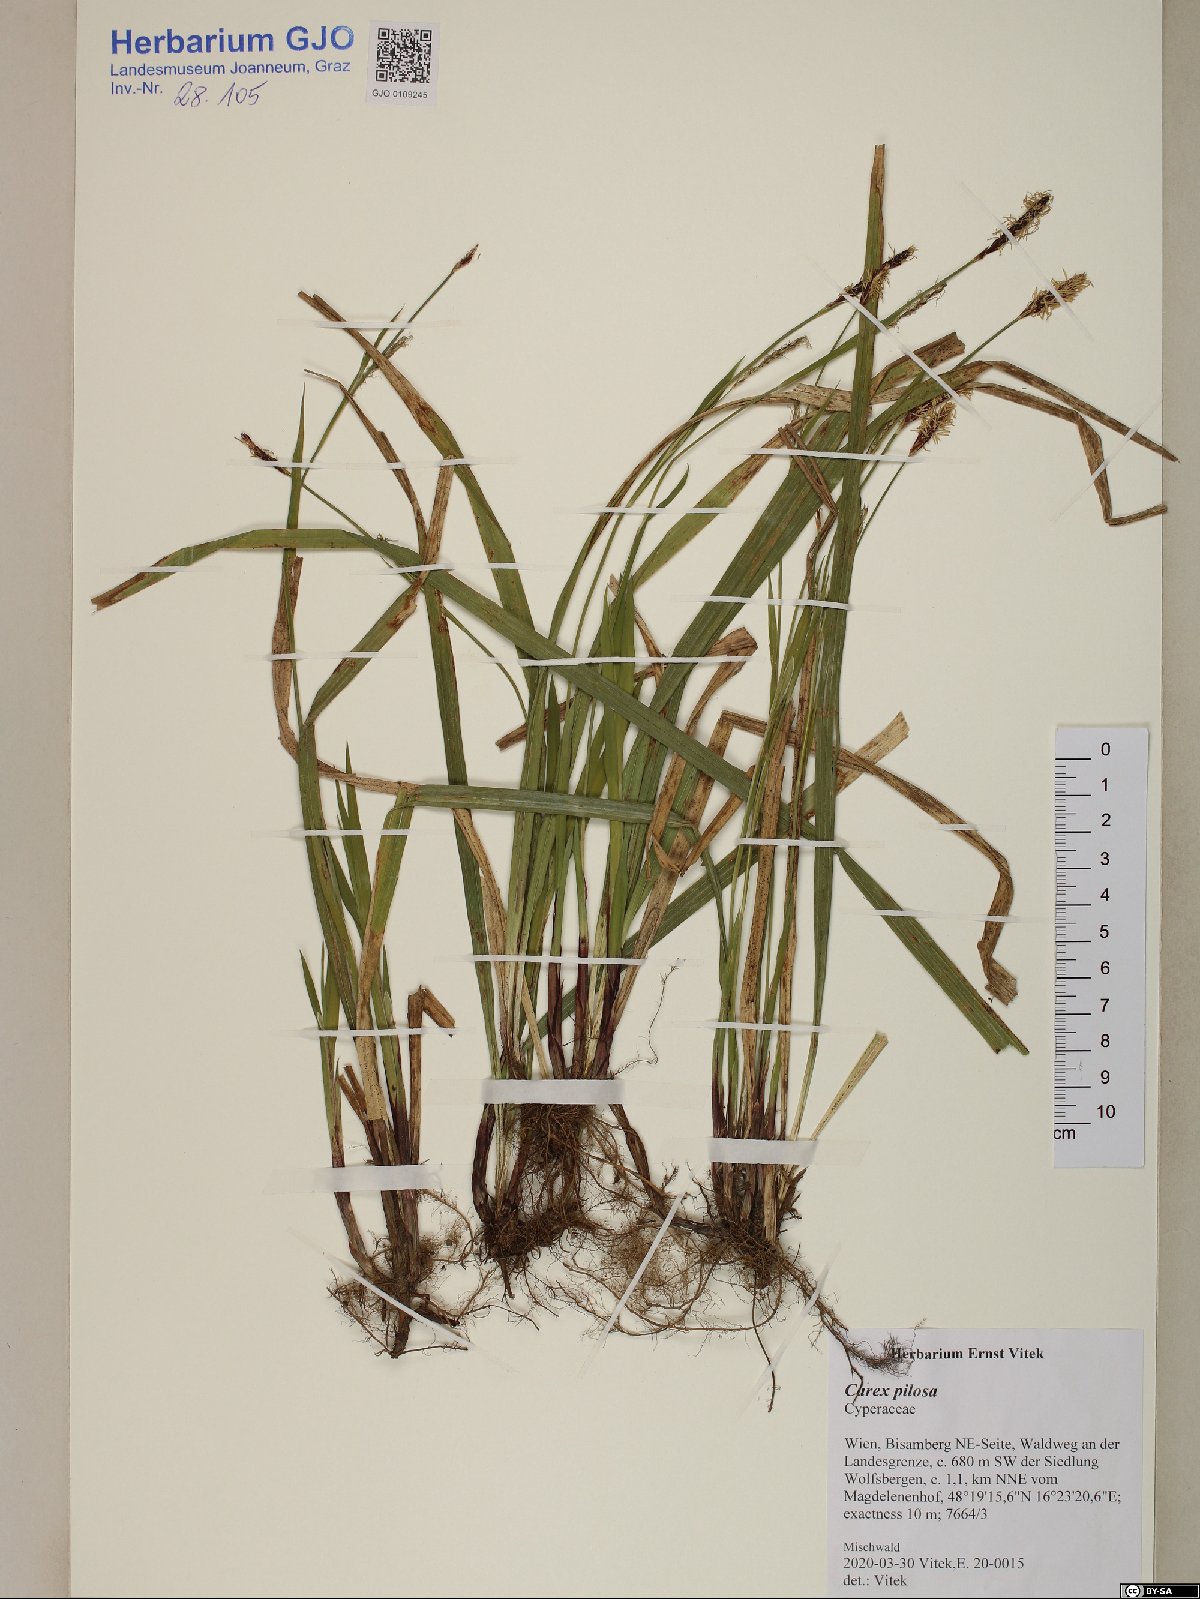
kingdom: Plantae
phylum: Tracheophyta
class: Liliopsida
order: Poales
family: Poaceae
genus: Trisetopsis
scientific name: Trisetopsis leonina
